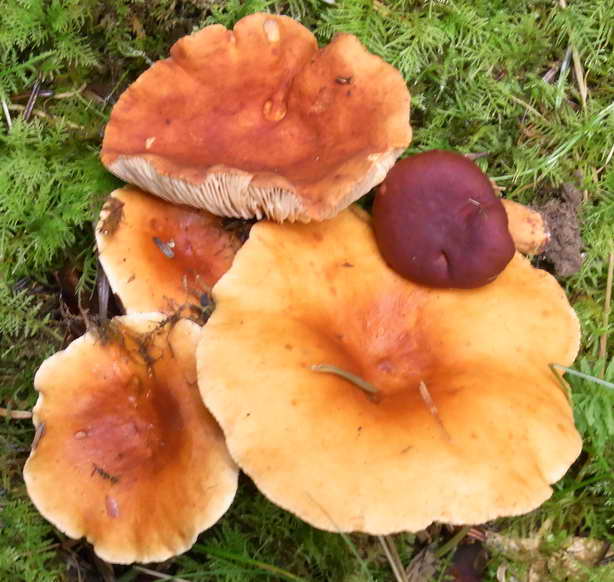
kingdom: Fungi
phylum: Basidiomycota
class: Agaricomycetes
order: Russulales
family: Russulaceae
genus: Lactarius
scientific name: Lactarius fulvissimus
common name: ræve-mælkehat
